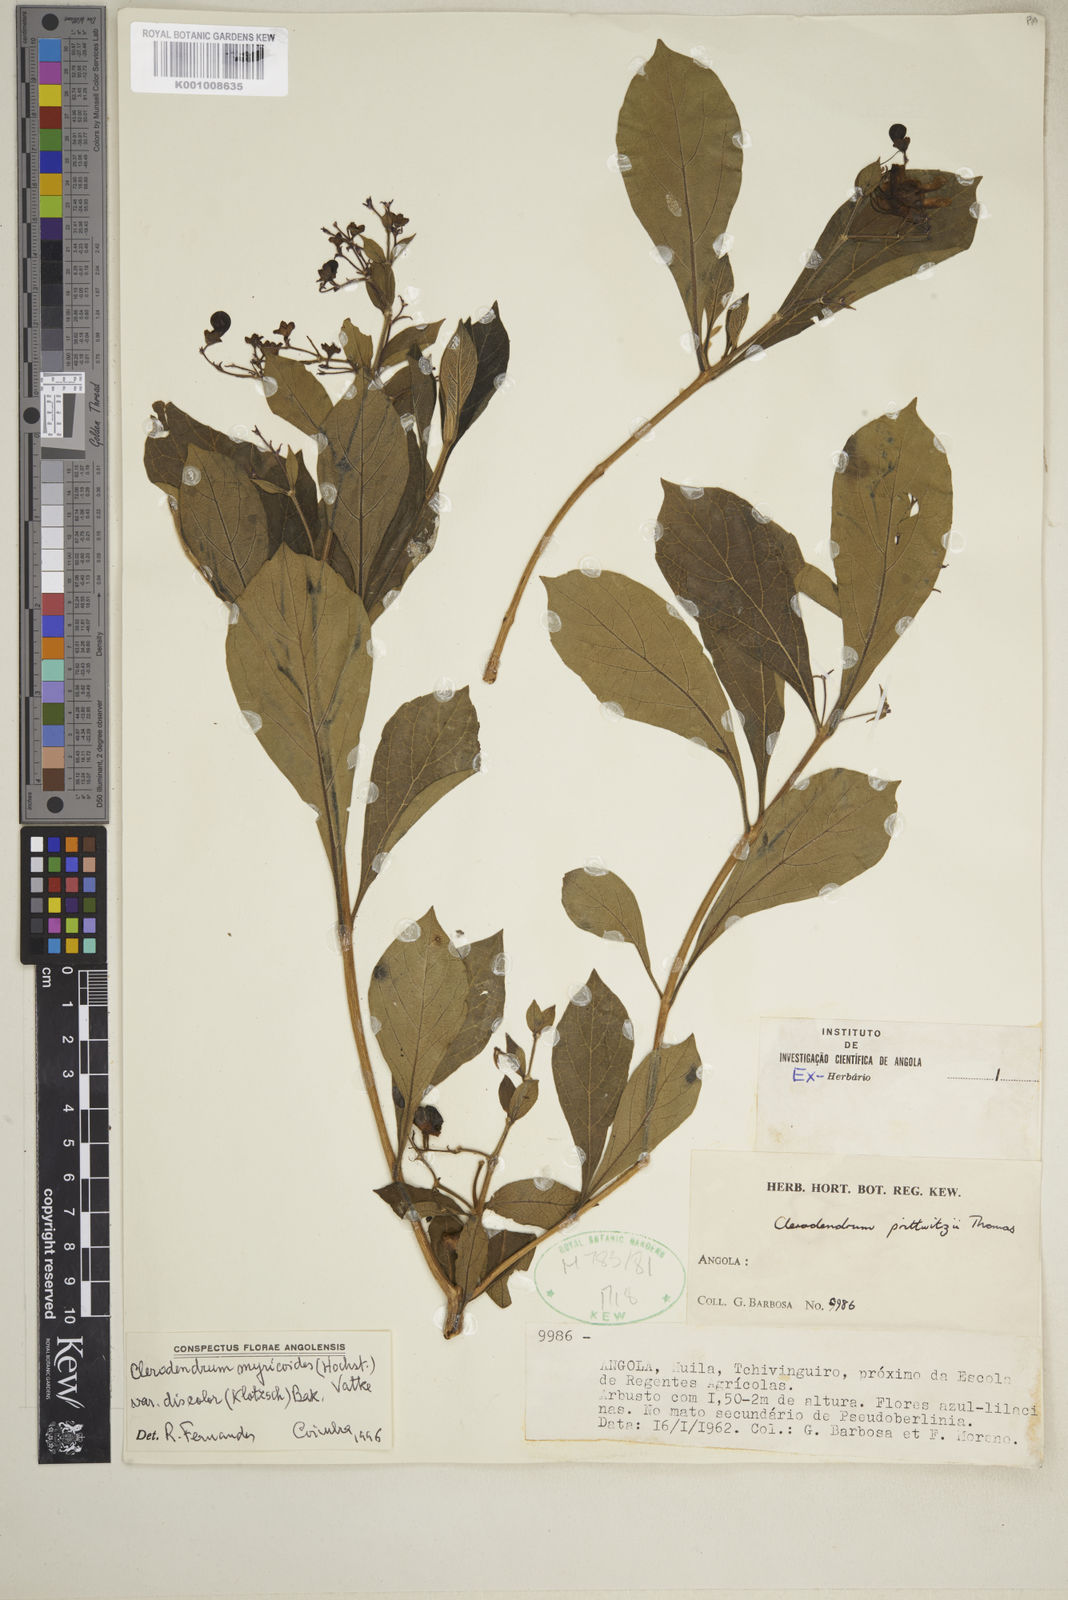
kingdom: Plantae
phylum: Tracheophyta
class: Magnoliopsida
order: Lamiales
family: Lamiaceae
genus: Rotheca
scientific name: Rotheca myricoides
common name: Cats-whiskers
